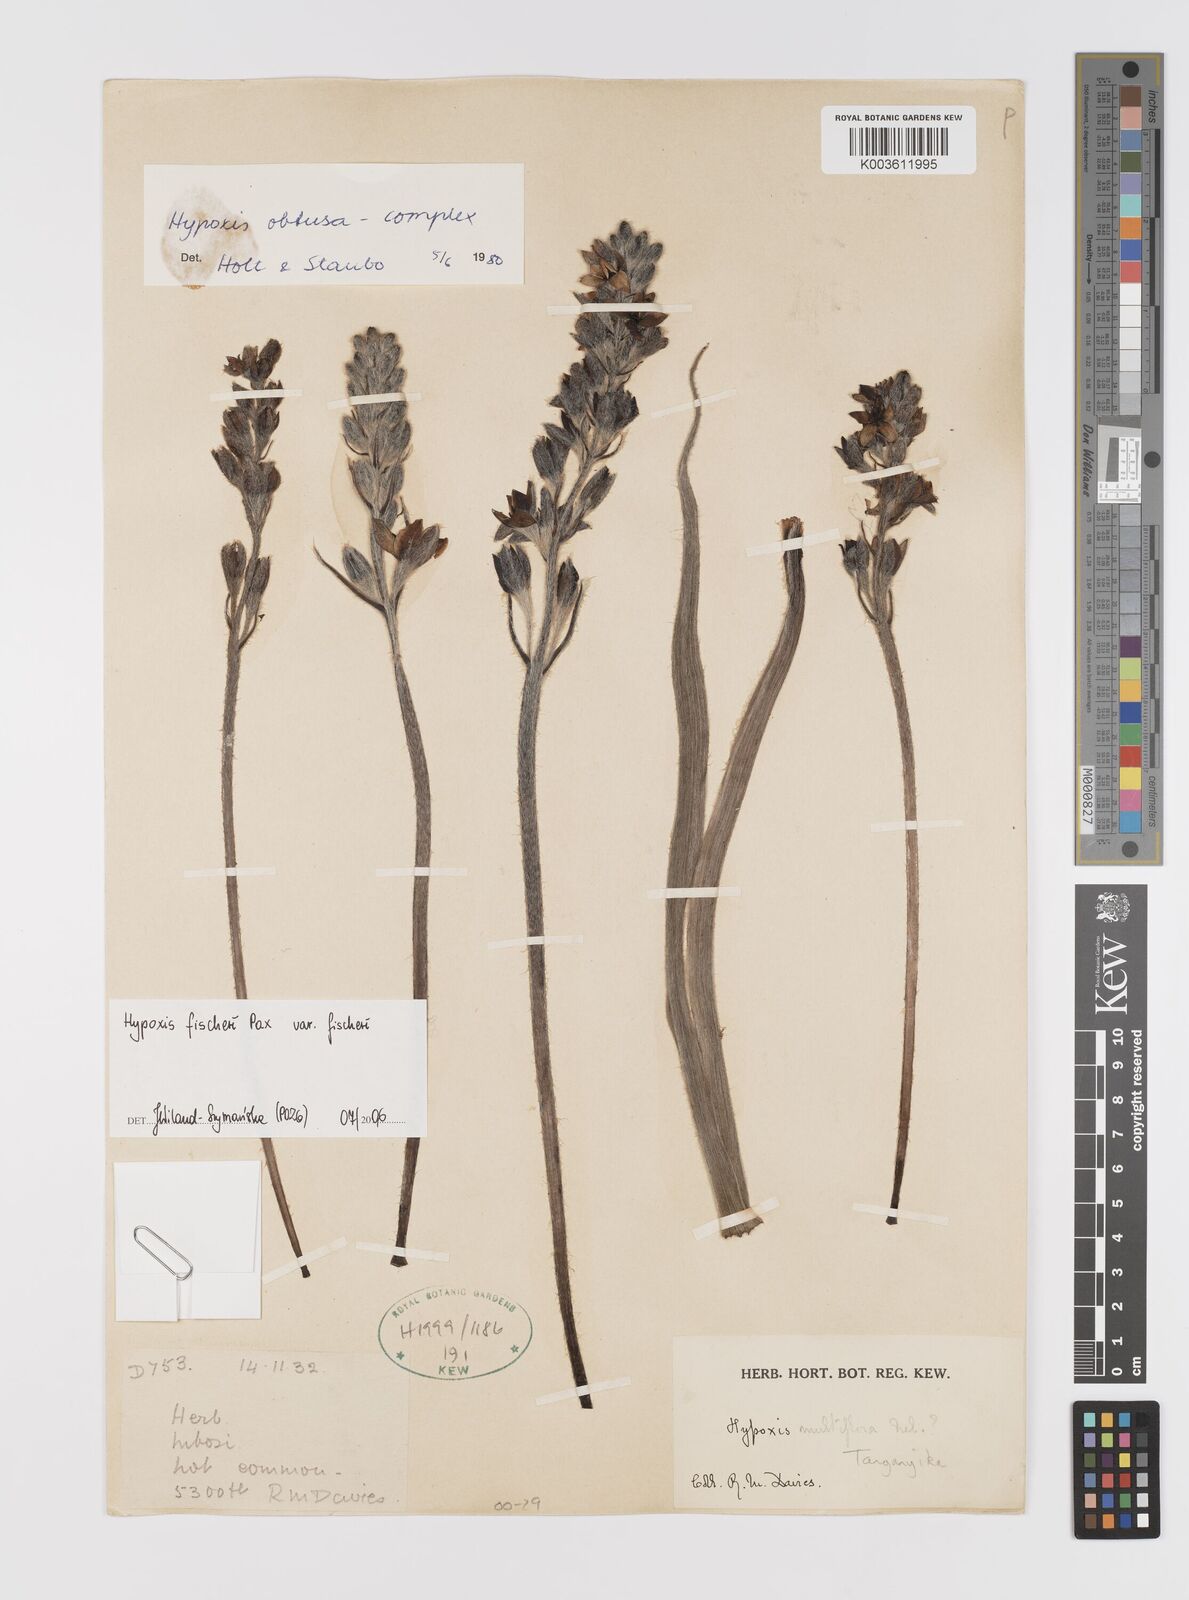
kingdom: Plantae
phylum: Tracheophyta
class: Liliopsida
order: Asparagales
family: Hypoxidaceae
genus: Hypoxis
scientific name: Hypoxis fischeri
